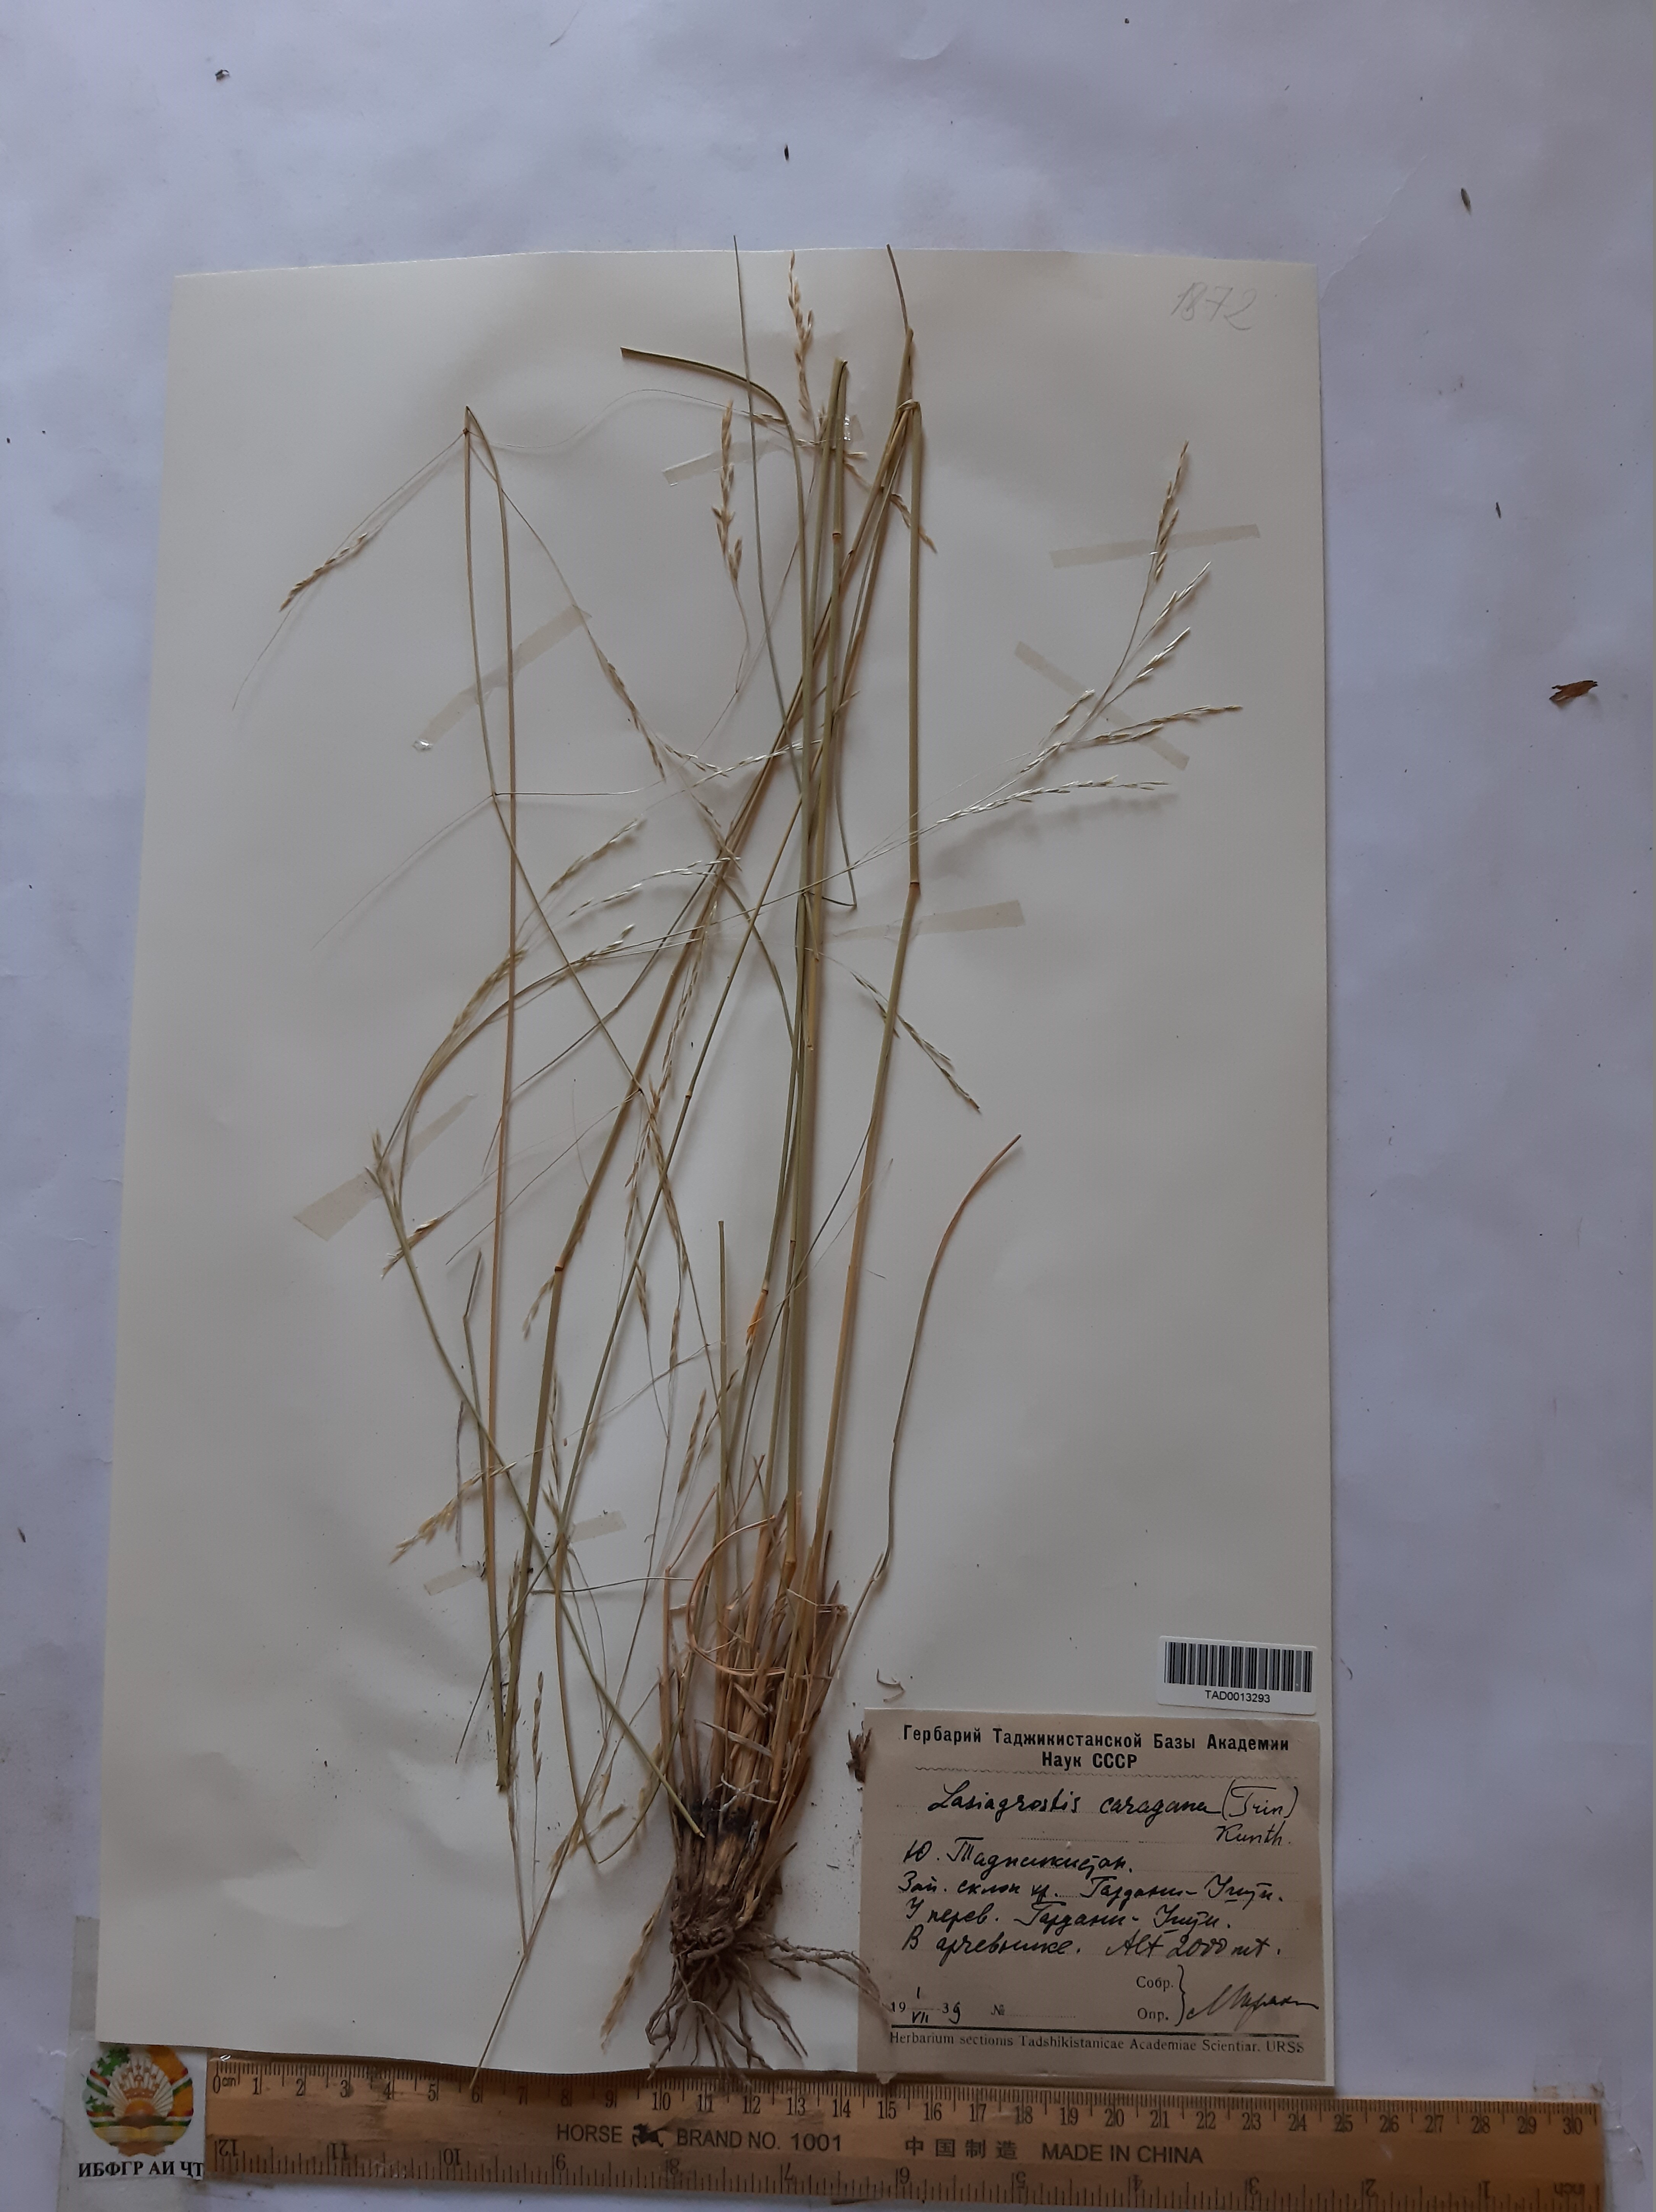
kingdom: Plantae
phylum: Tracheophyta
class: Liliopsida
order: Poales
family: Poaceae
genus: Stipa
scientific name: Stipa conferta
